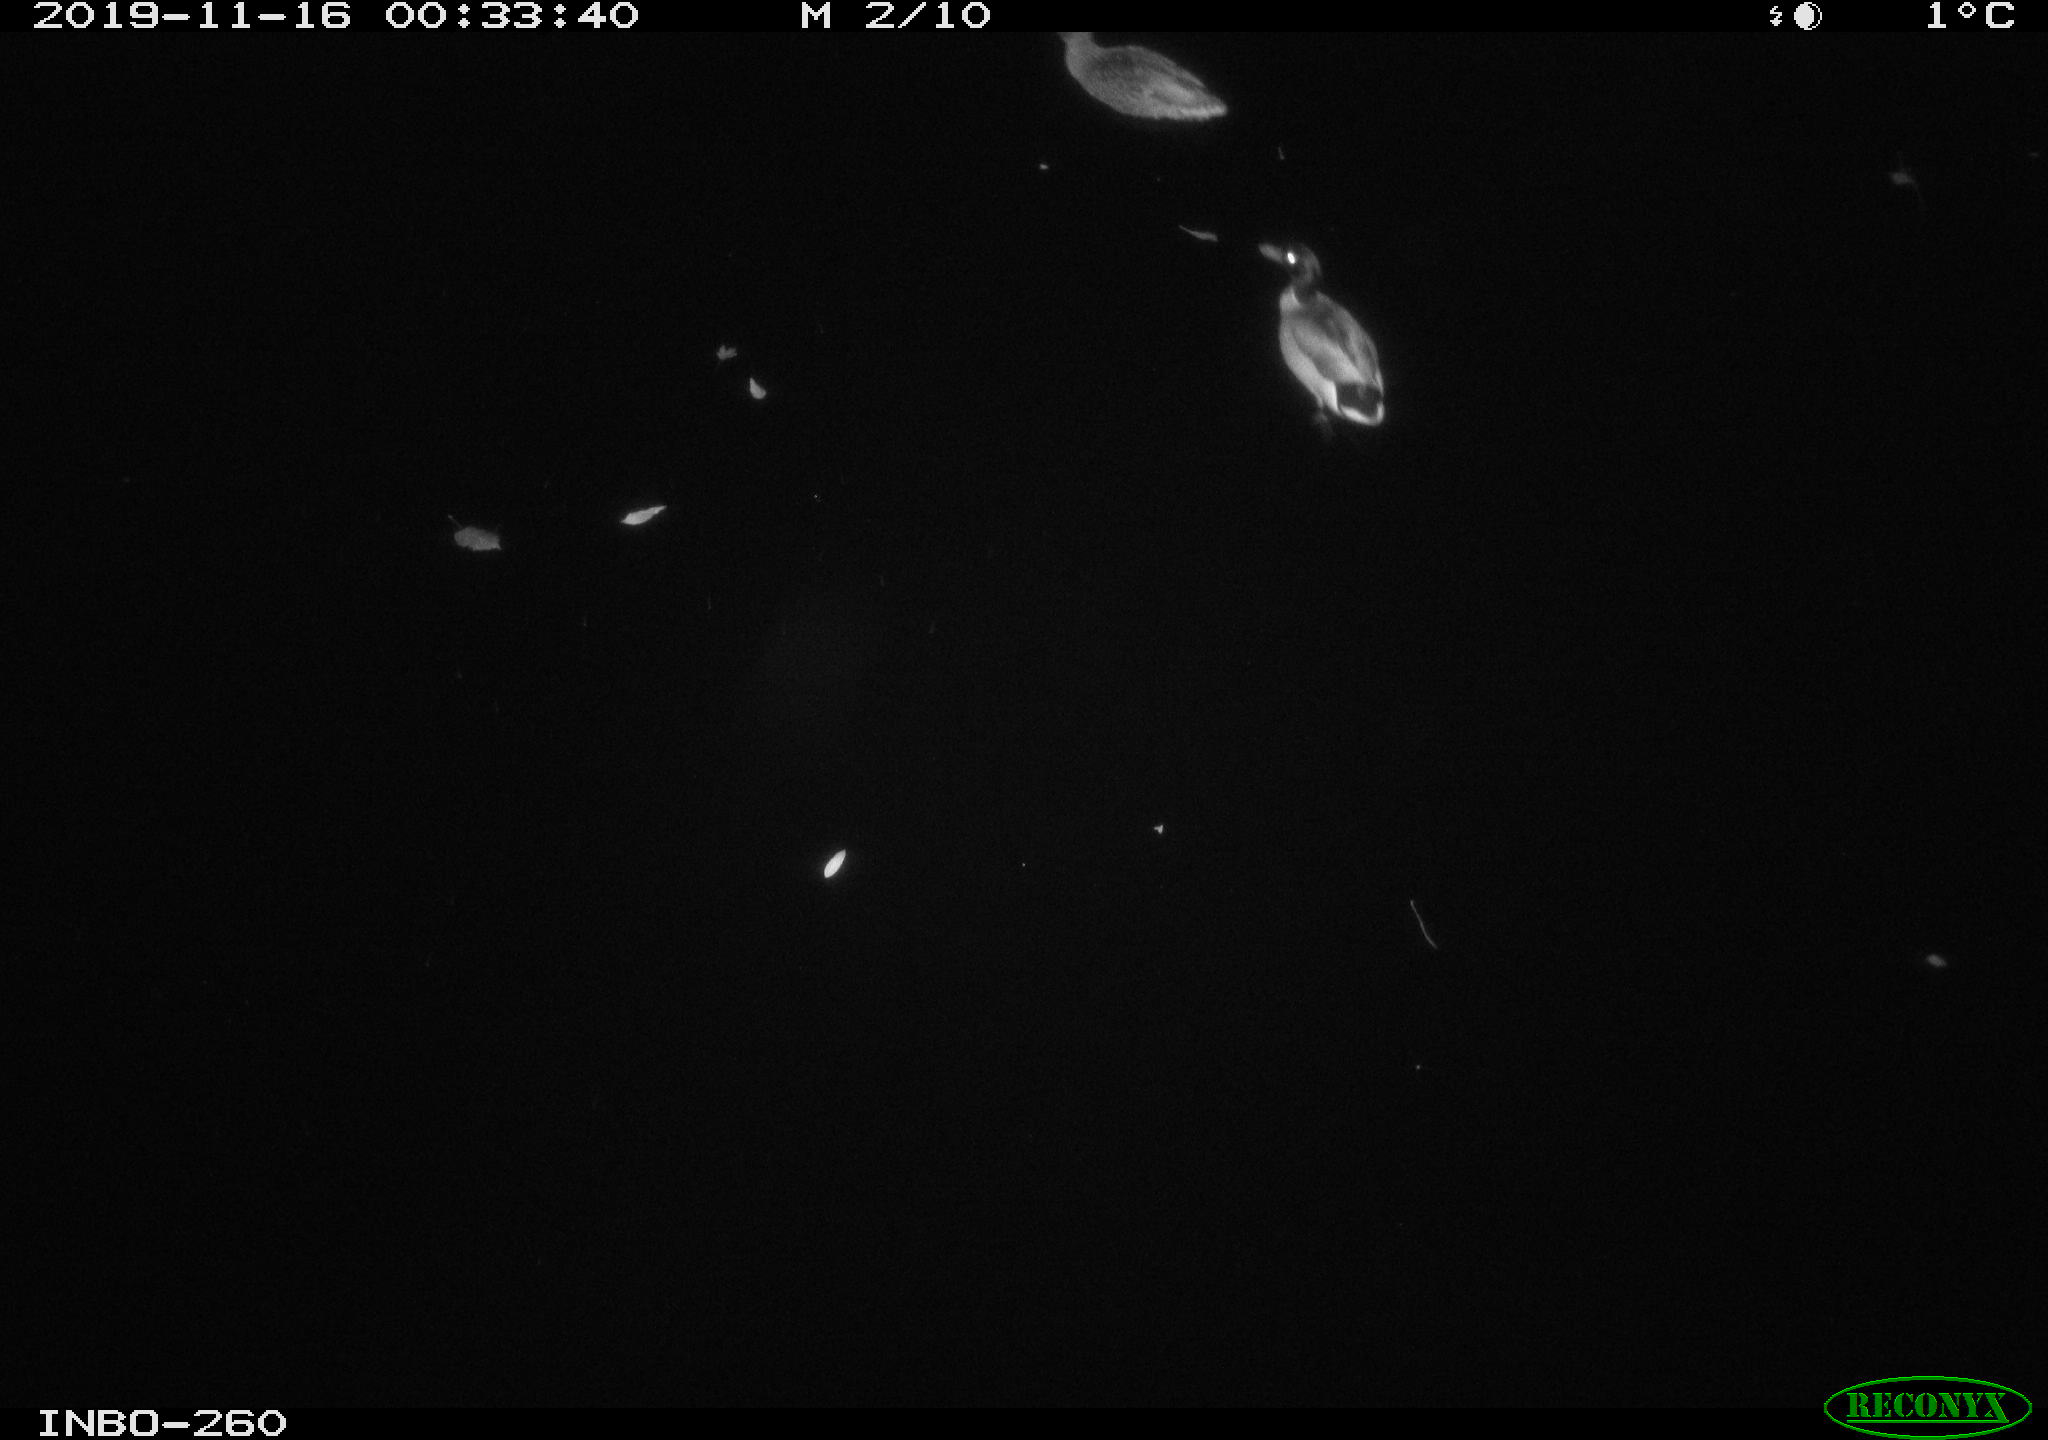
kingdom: Animalia
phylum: Chordata
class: Aves
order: Anseriformes
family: Anatidae
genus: Anas
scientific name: Anas platyrhynchos
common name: Mallard
